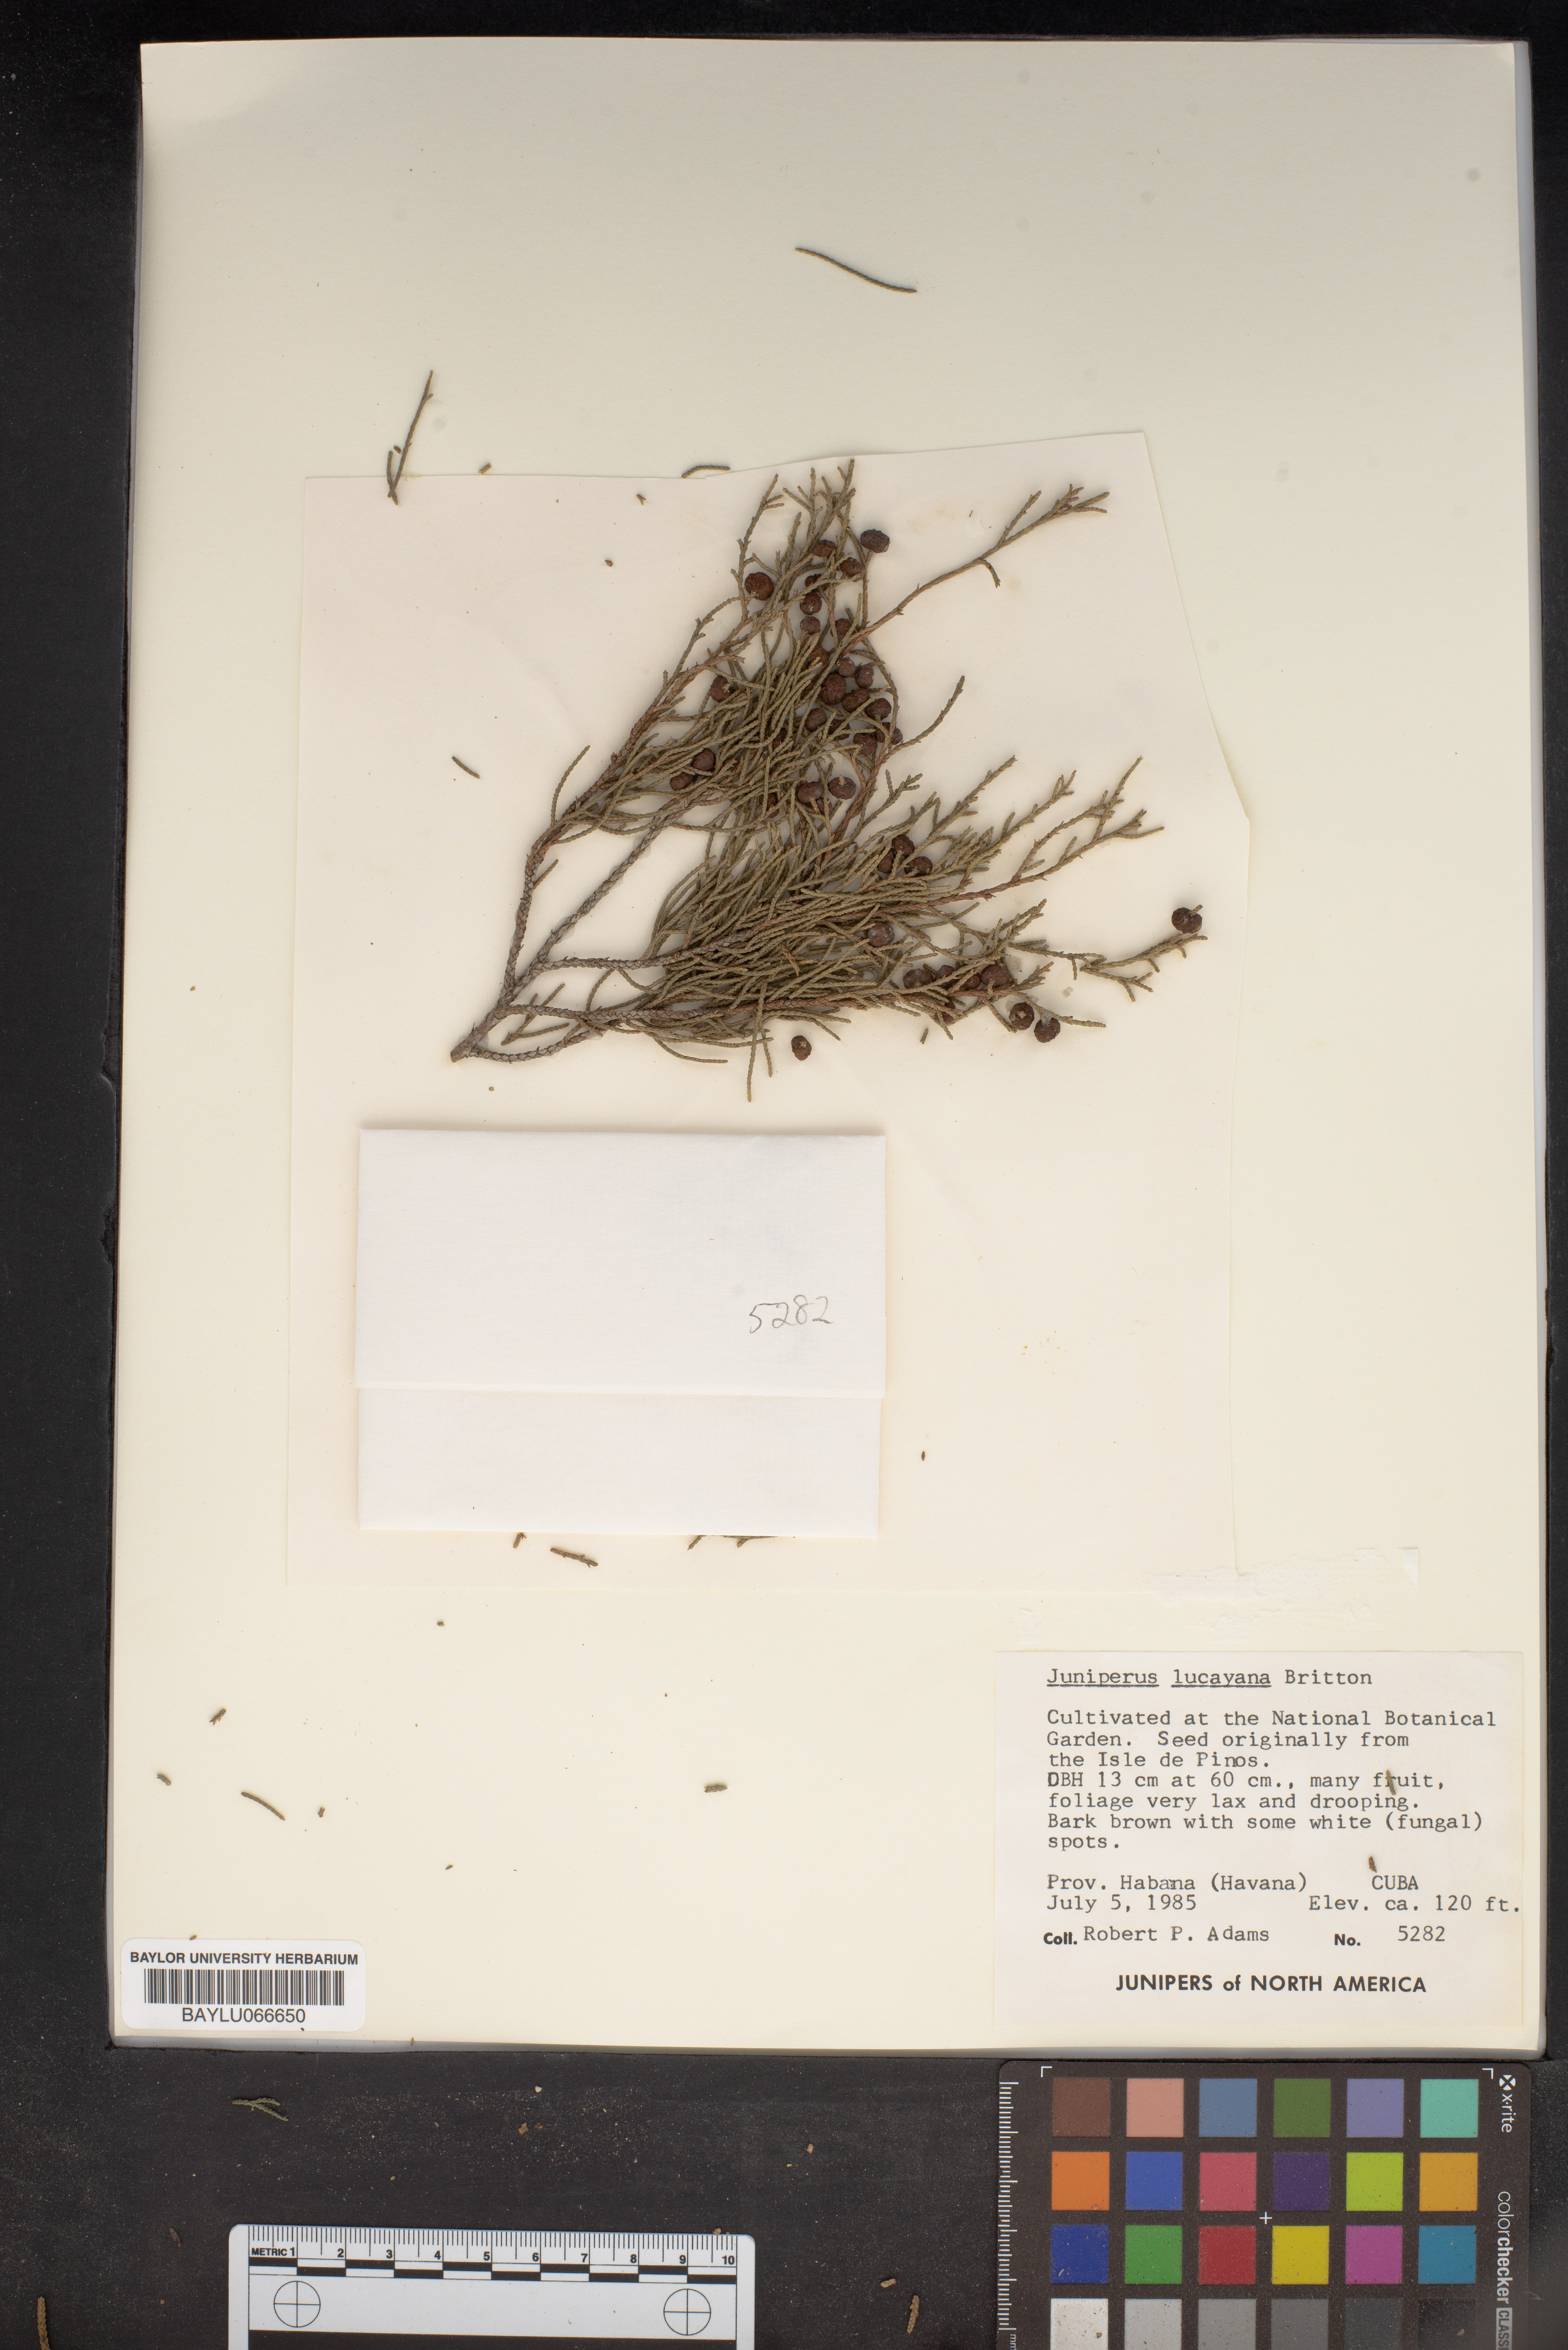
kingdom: Plantae
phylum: Tracheophyta
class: Pinopsida
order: Pinales
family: Cupressaceae
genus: Juniperus
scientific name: Juniperus barbadensis
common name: West indies juniper
